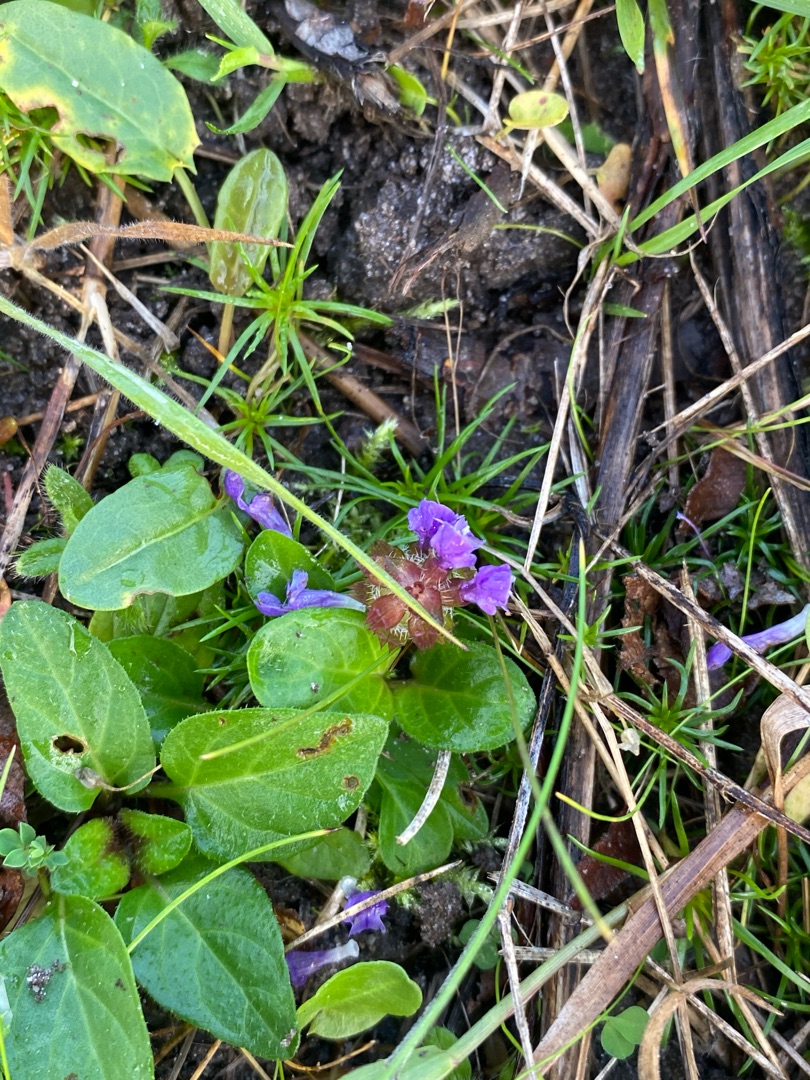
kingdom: Plantae
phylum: Tracheophyta
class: Magnoliopsida
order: Lamiales
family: Lamiaceae
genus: Prunella
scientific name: Prunella vulgaris
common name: Almindelig brunelle
